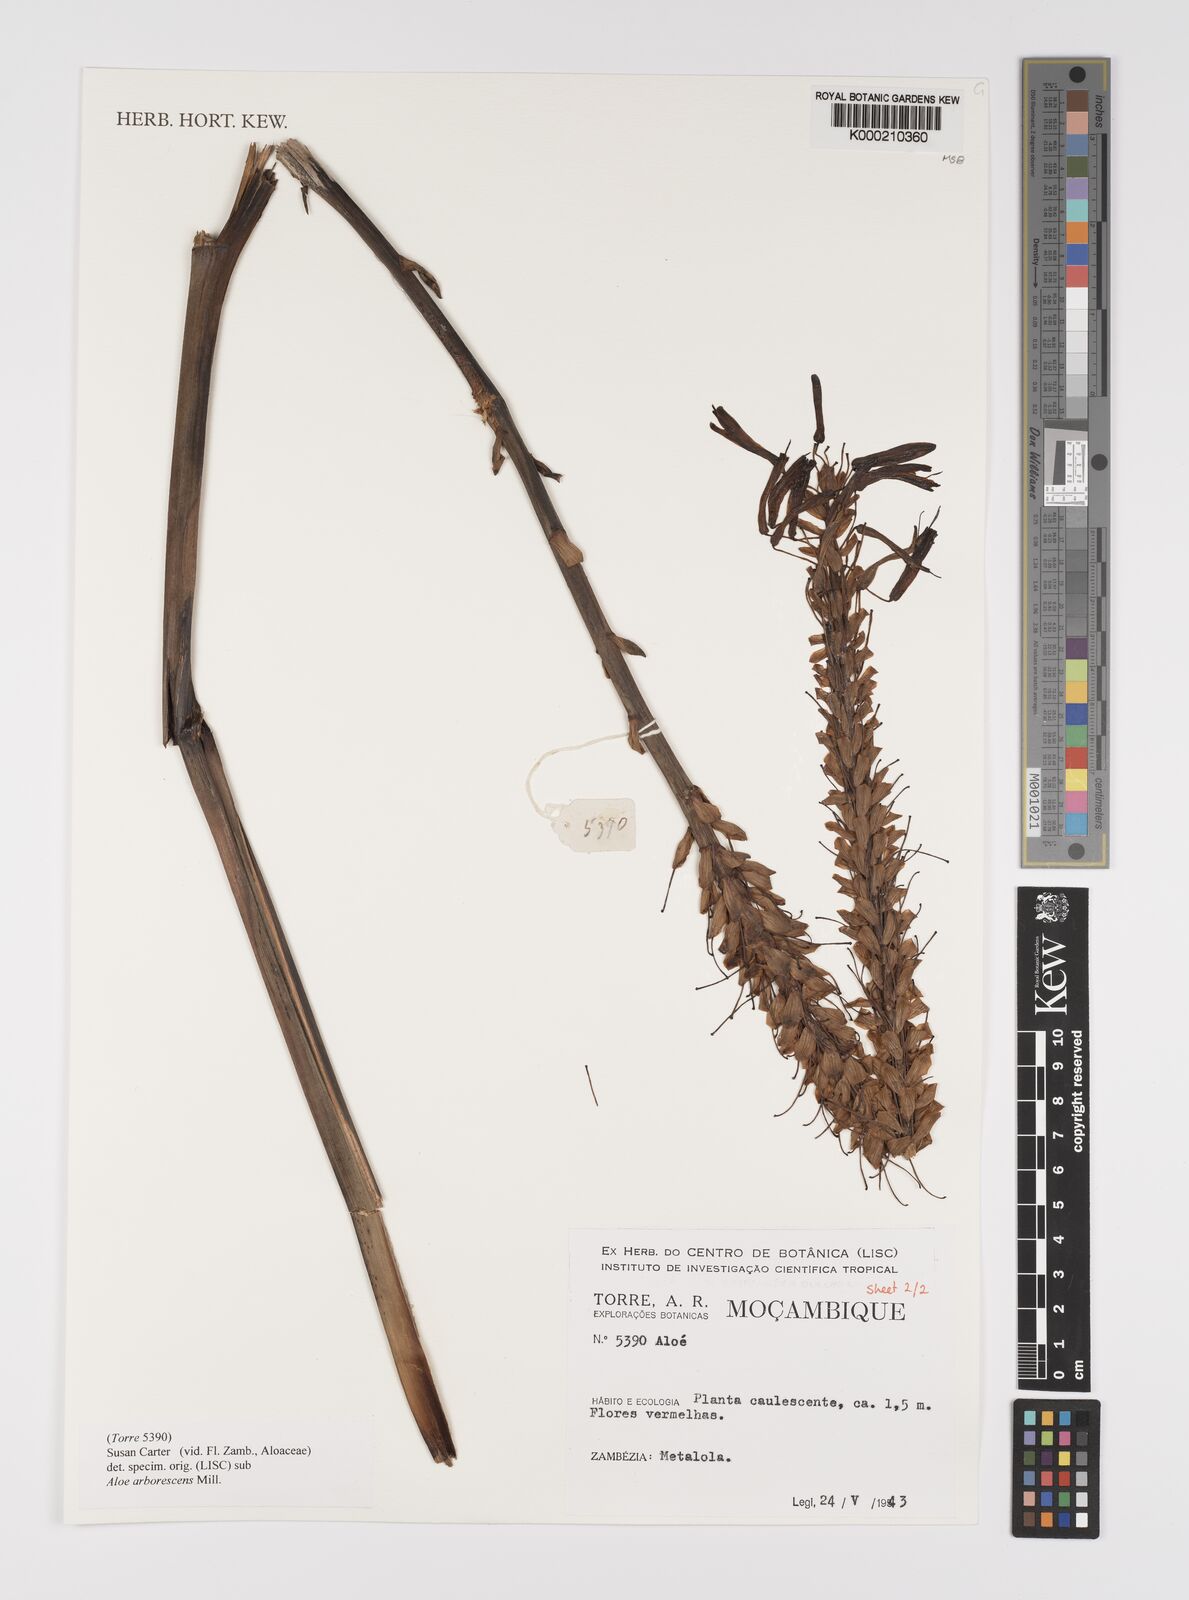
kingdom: Plantae
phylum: Tracheophyta
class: Liliopsida
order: Asparagales
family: Asphodelaceae
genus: Aloe
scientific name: Aloe arborescens
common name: Candelabra aloe
